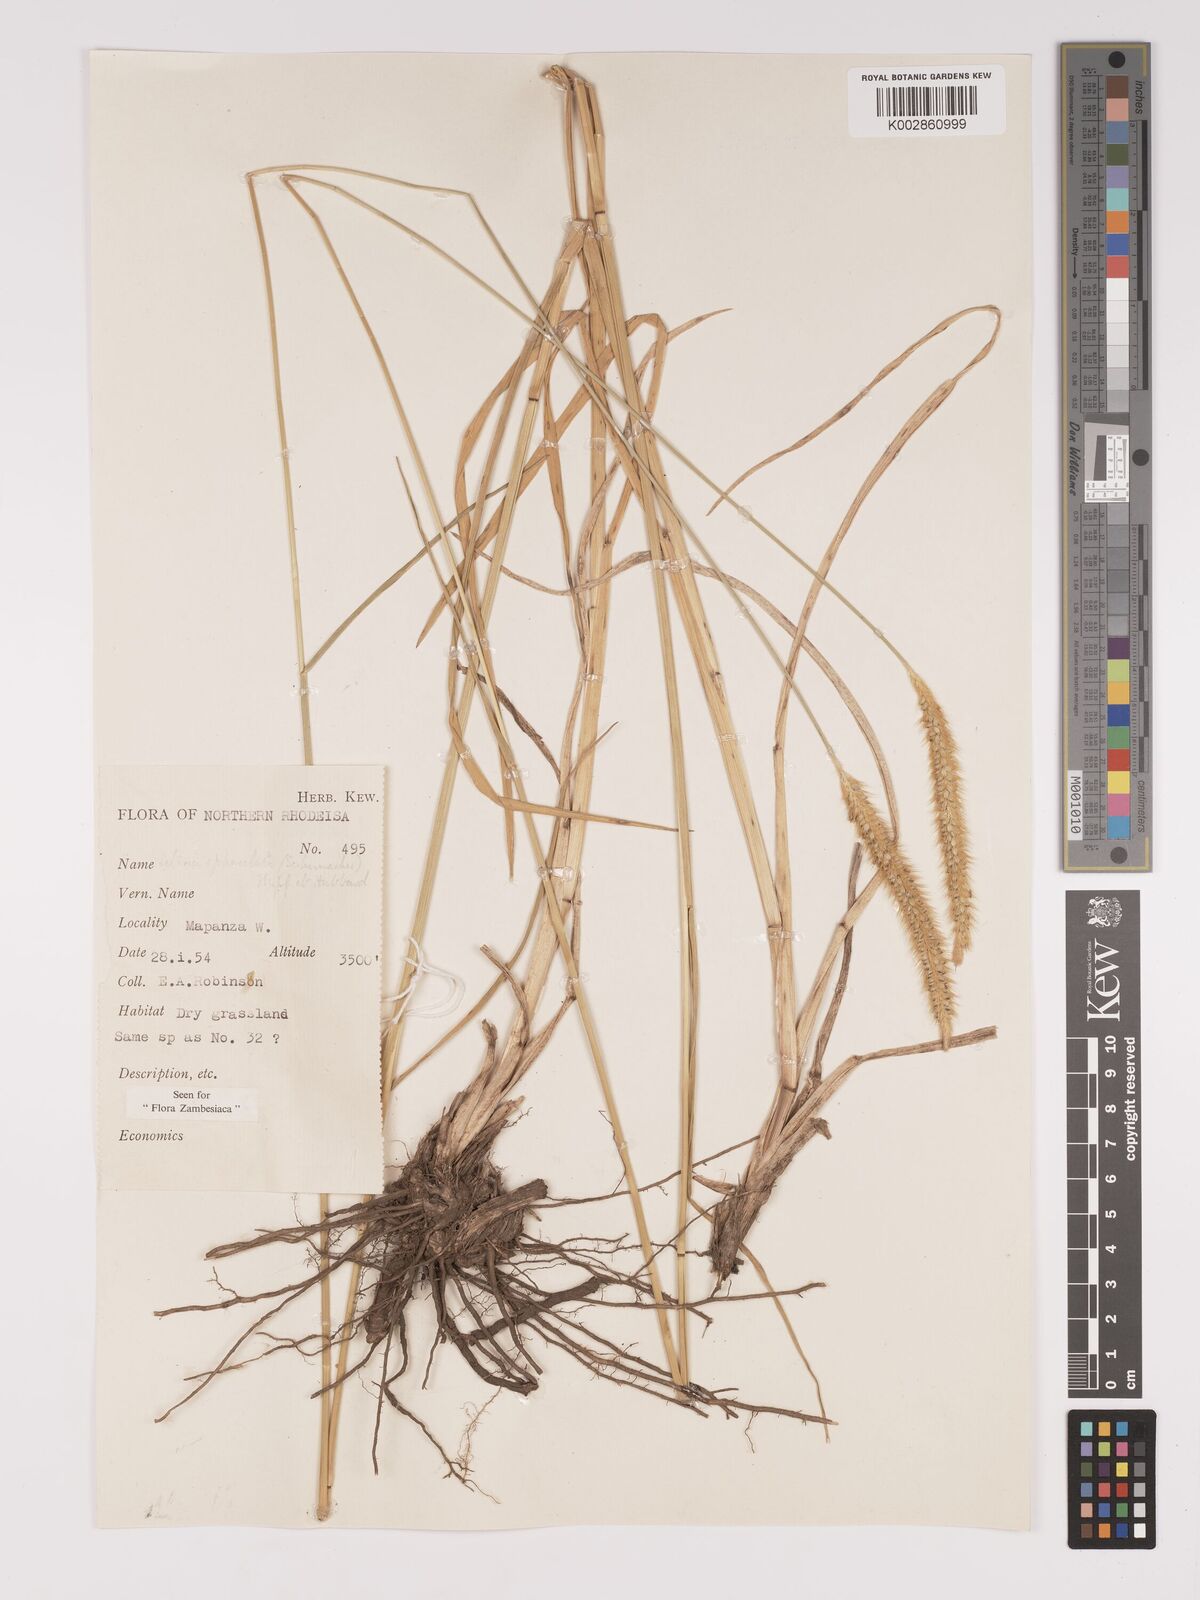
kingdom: Plantae
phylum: Tracheophyta
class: Liliopsida
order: Poales
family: Poaceae
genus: Setaria
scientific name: Setaria sphacelata
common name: African bristlegrass
